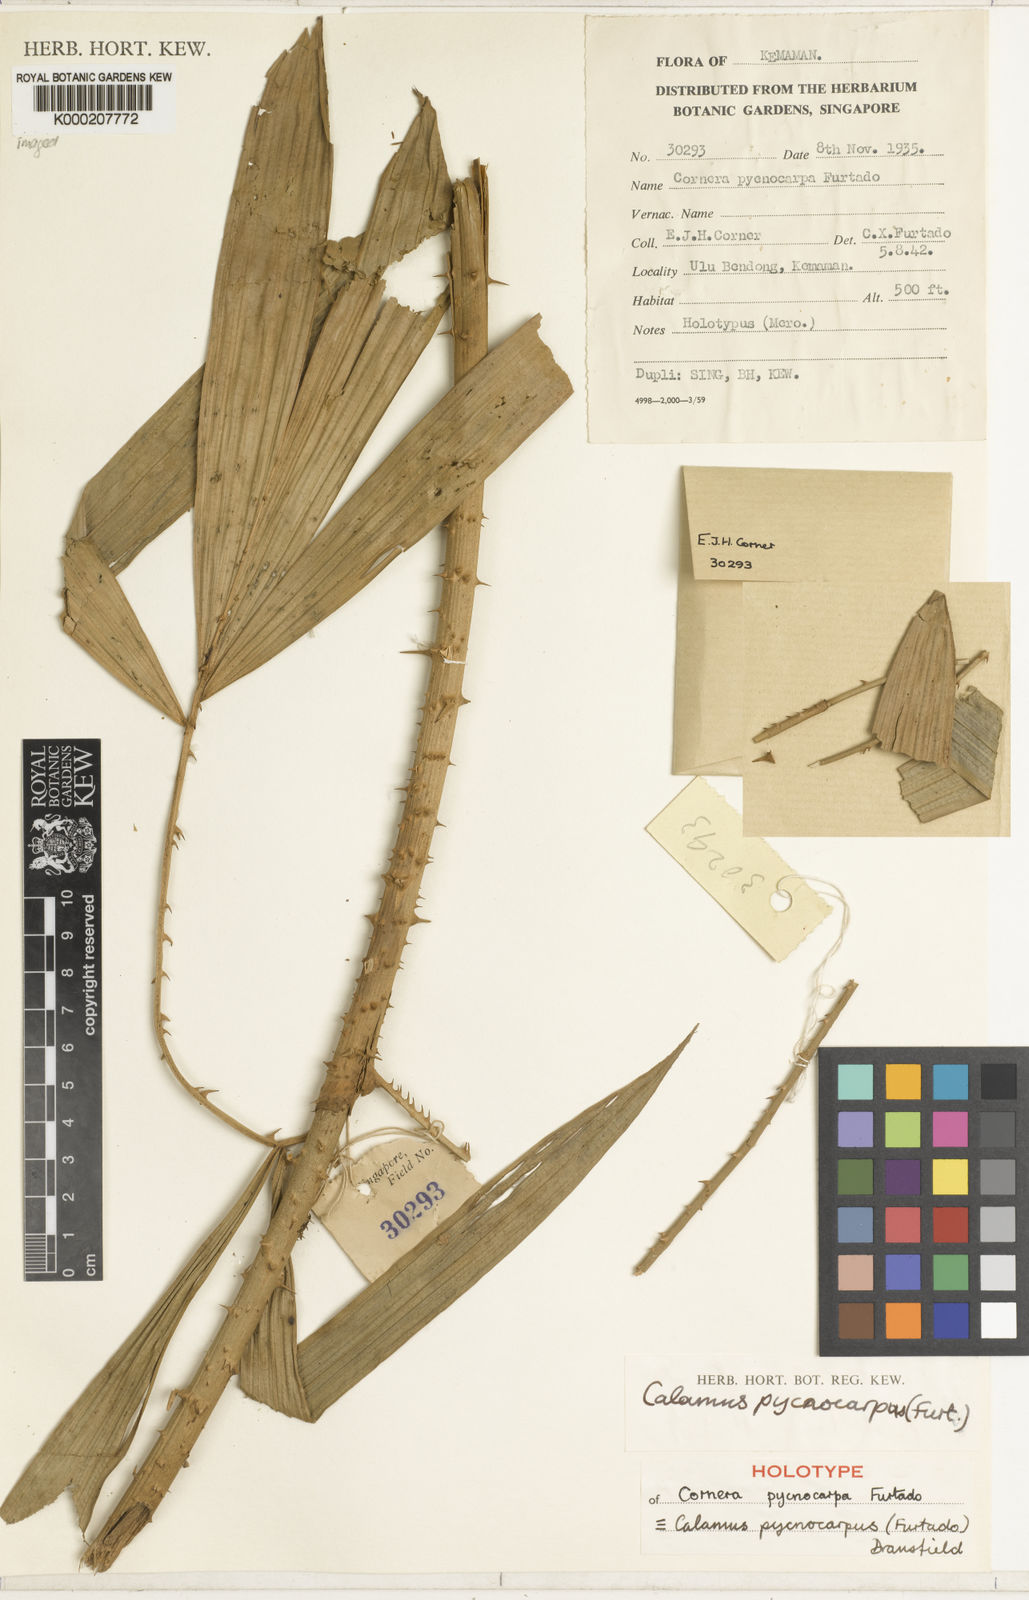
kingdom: Plantae
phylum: Tracheophyta
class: Liliopsida
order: Arecales
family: Arecaceae
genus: Calamus
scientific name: Calamus pycnocarpus
